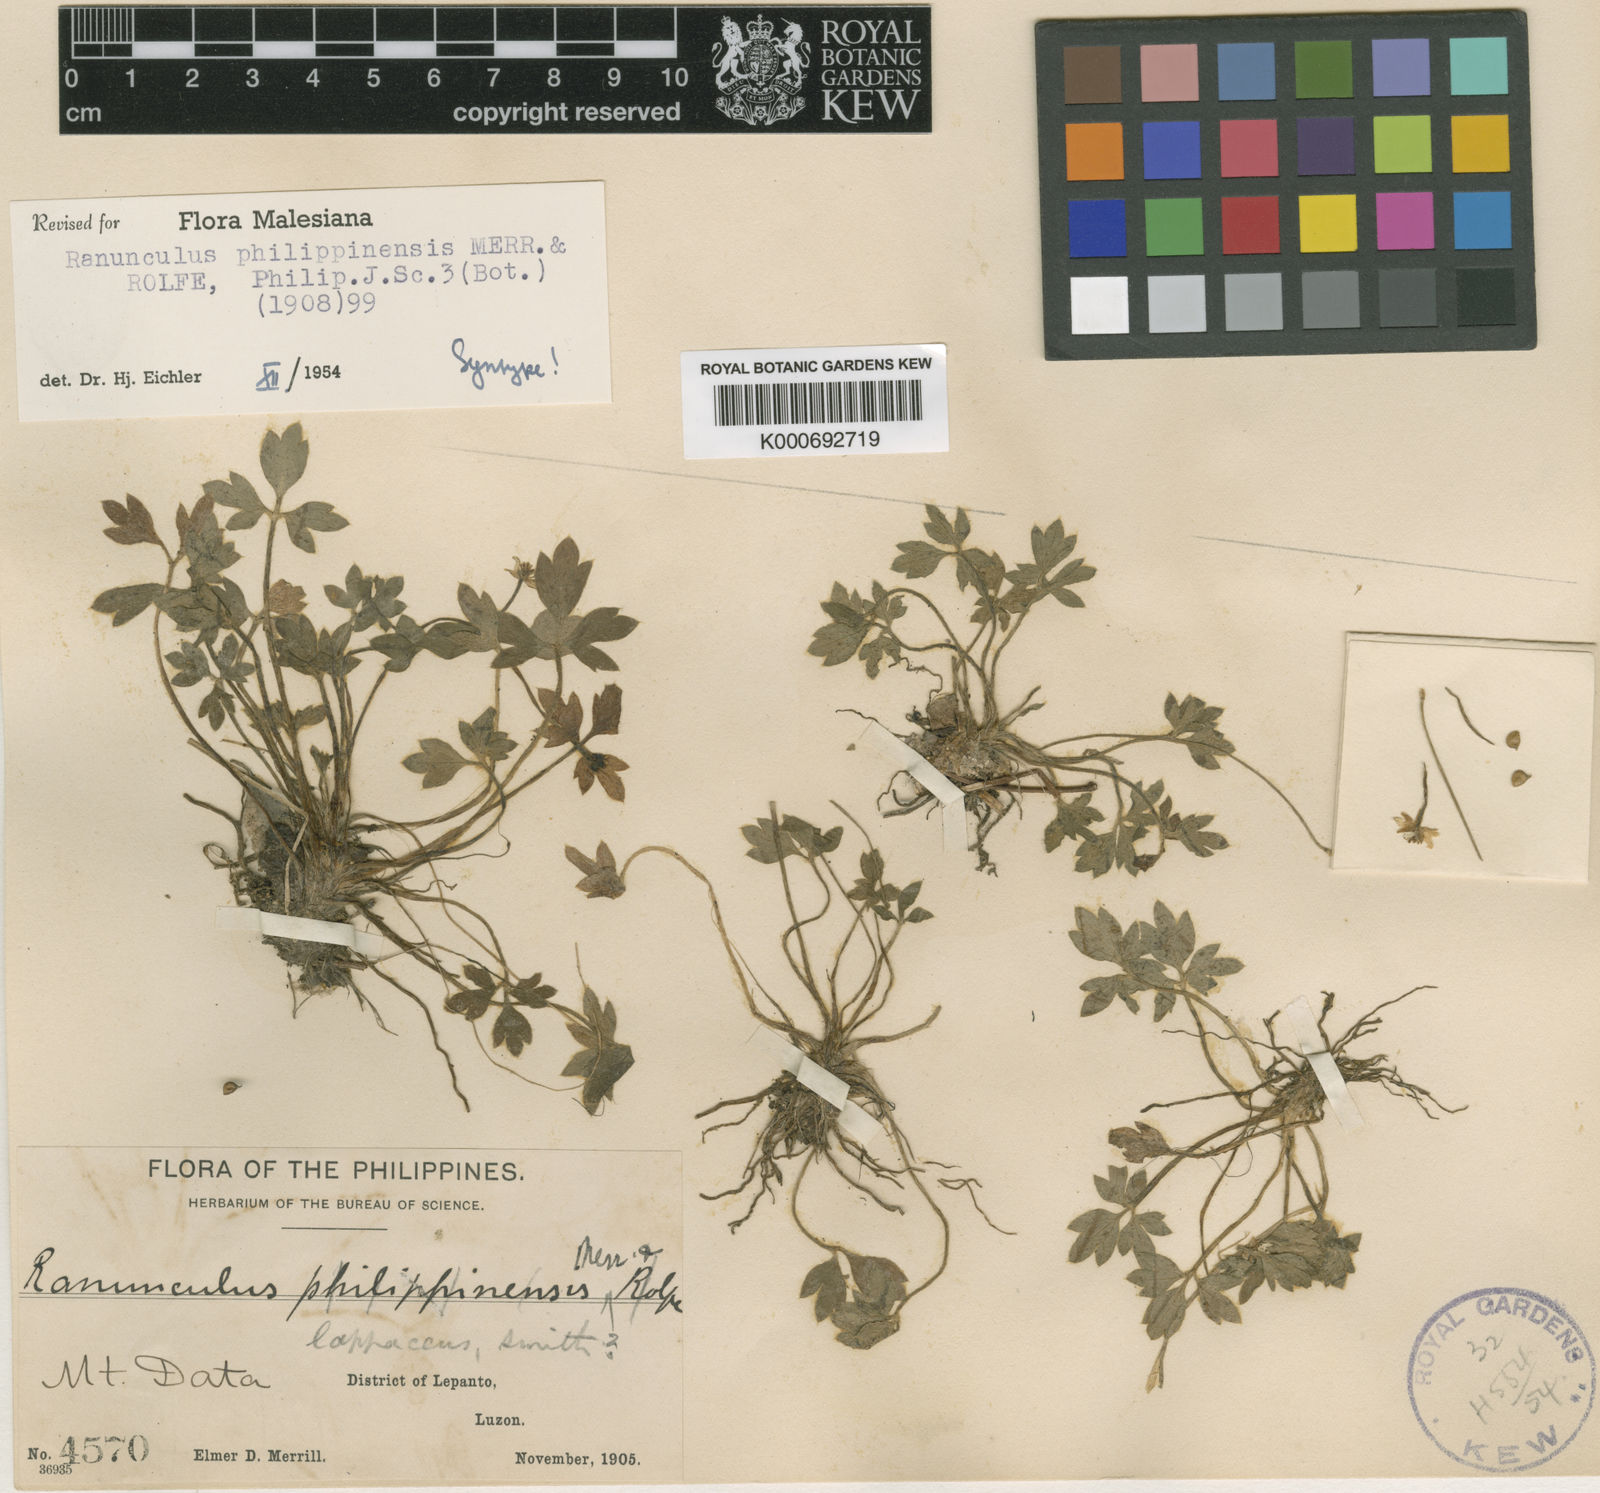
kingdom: Plantae
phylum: Tracheophyta
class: Magnoliopsida
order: Ranunculales
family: Ranunculaceae
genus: Ranunculus
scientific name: Ranunculus philippinensis
